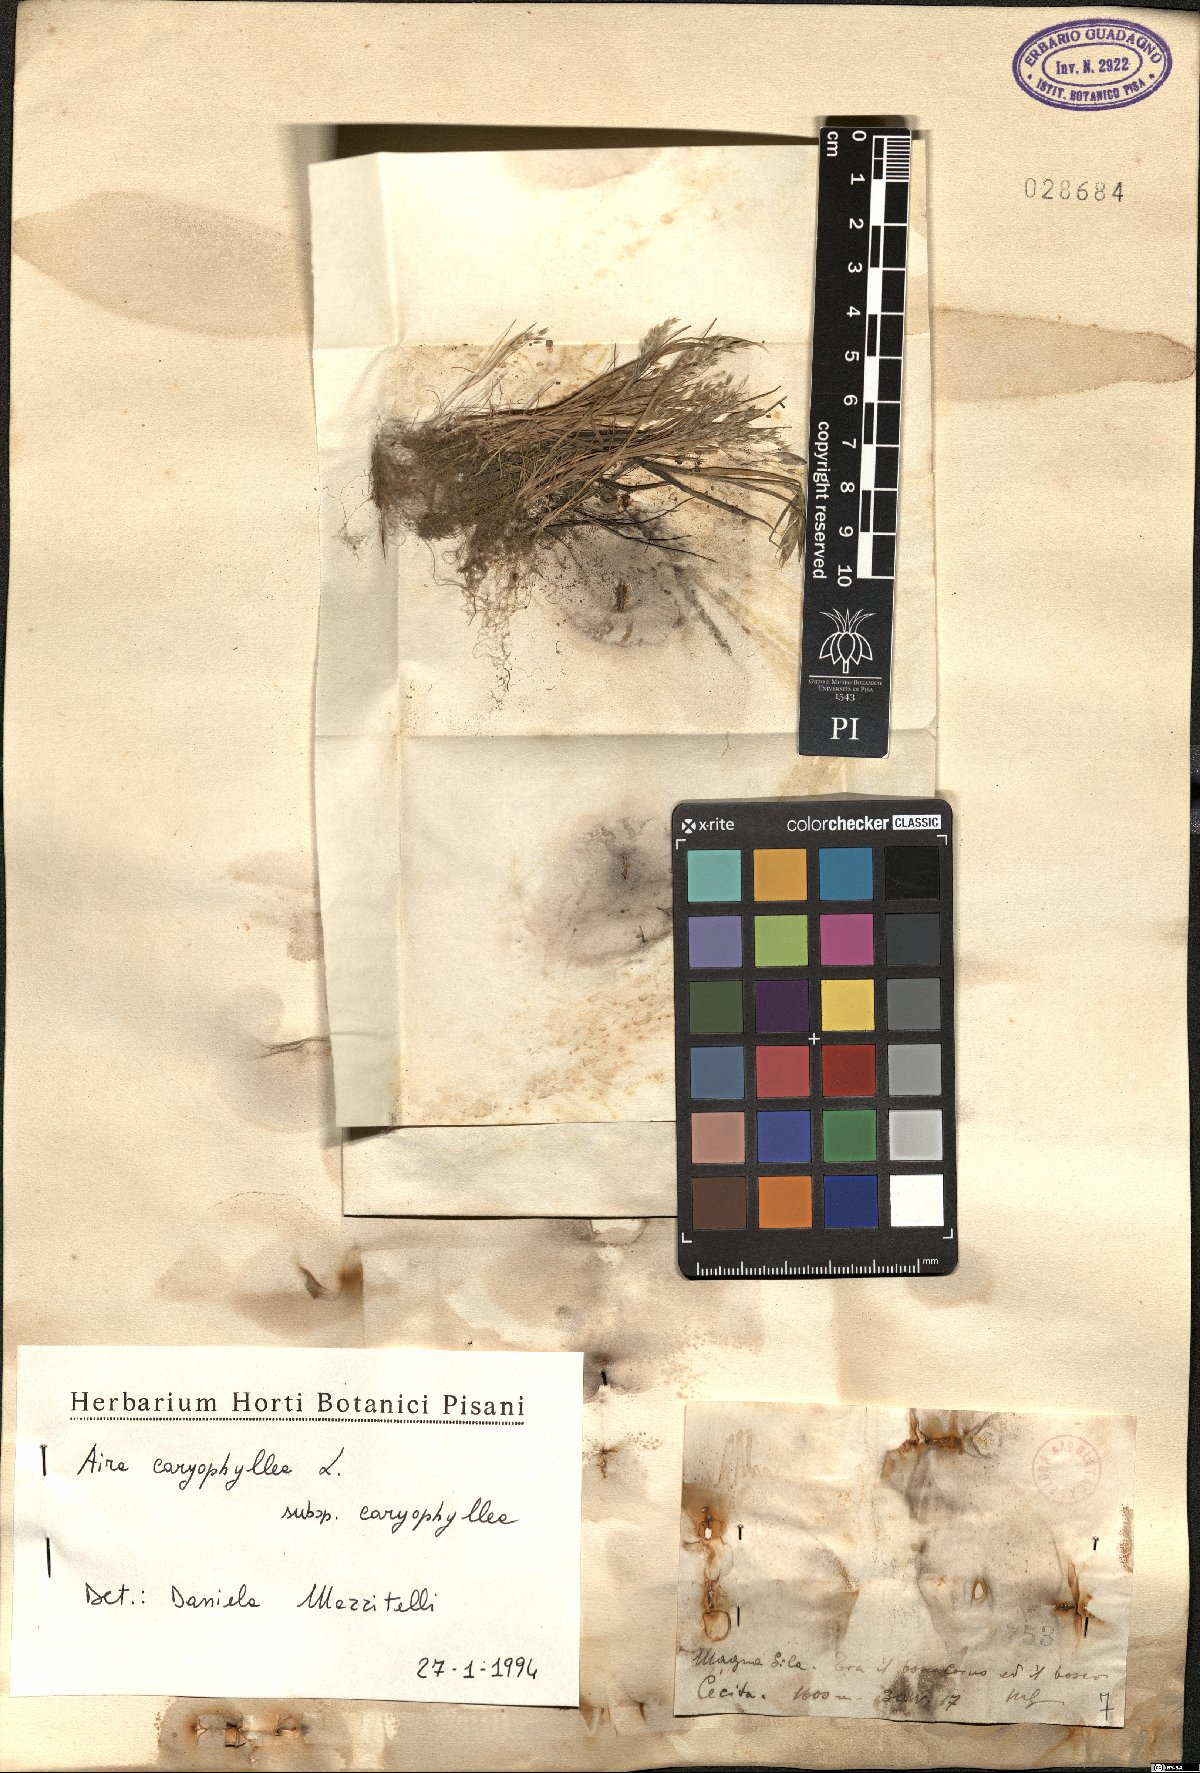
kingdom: Plantae
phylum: Tracheophyta
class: Liliopsida
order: Poales
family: Poaceae
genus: Aira
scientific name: Aira caryophyllea
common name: Silver hairgrass
